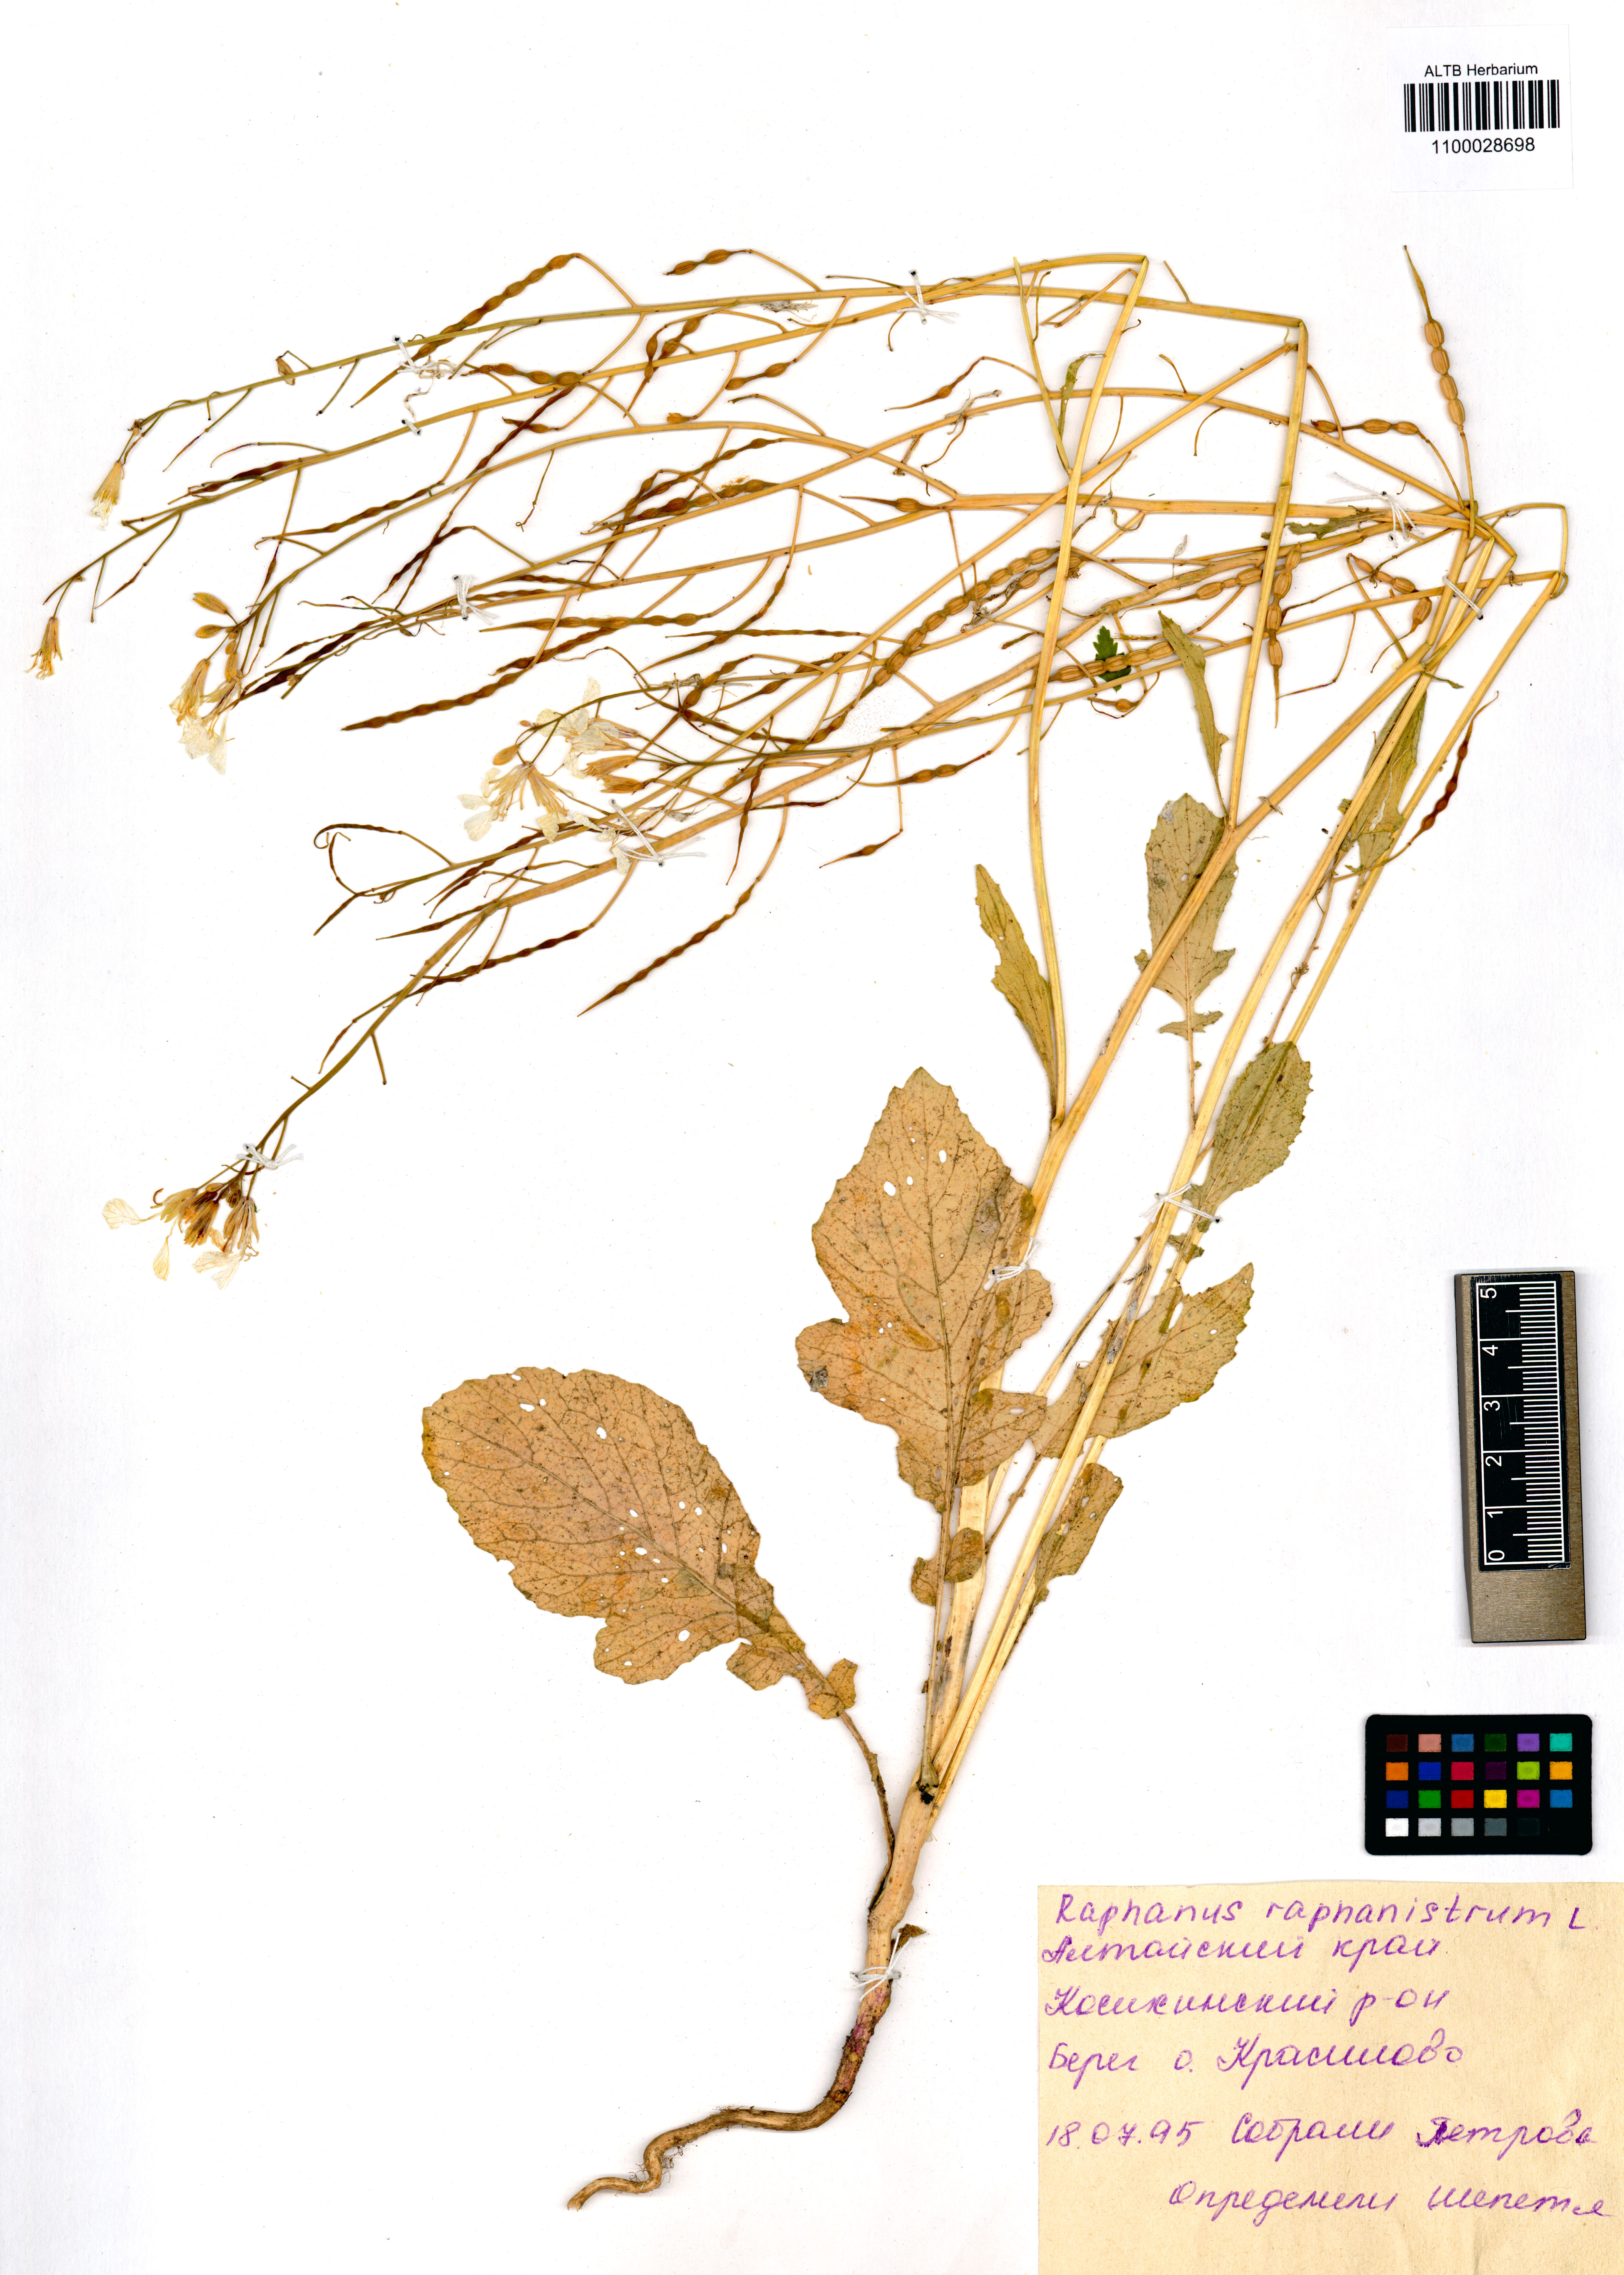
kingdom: Plantae
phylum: Tracheophyta
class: Magnoliopsida
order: Brassicales
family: Brassicaceae
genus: Raphanus
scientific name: Raphanus raphanistrum
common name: Wild radish
